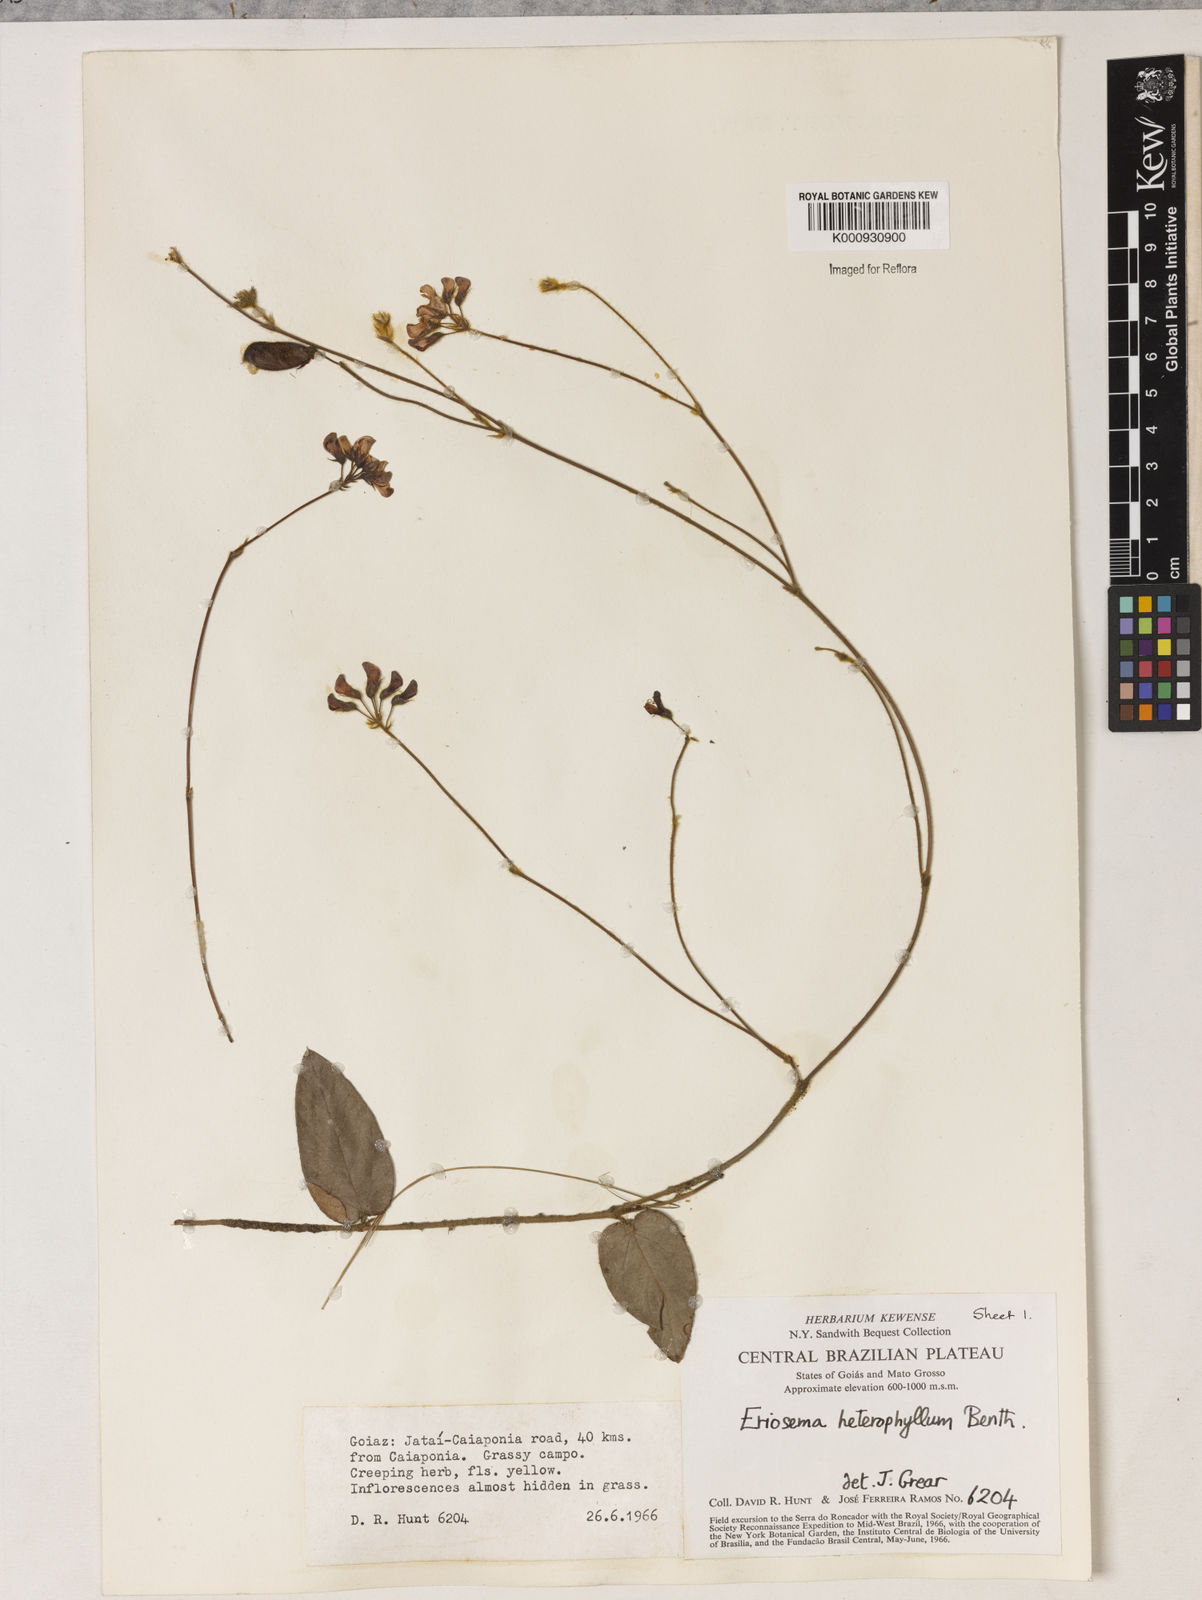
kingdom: Plantae
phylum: Tracheophyta
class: Magnoliopsida
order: Fabales
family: Fabaceae
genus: Eriosema
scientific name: Eriosema heterophyllum
